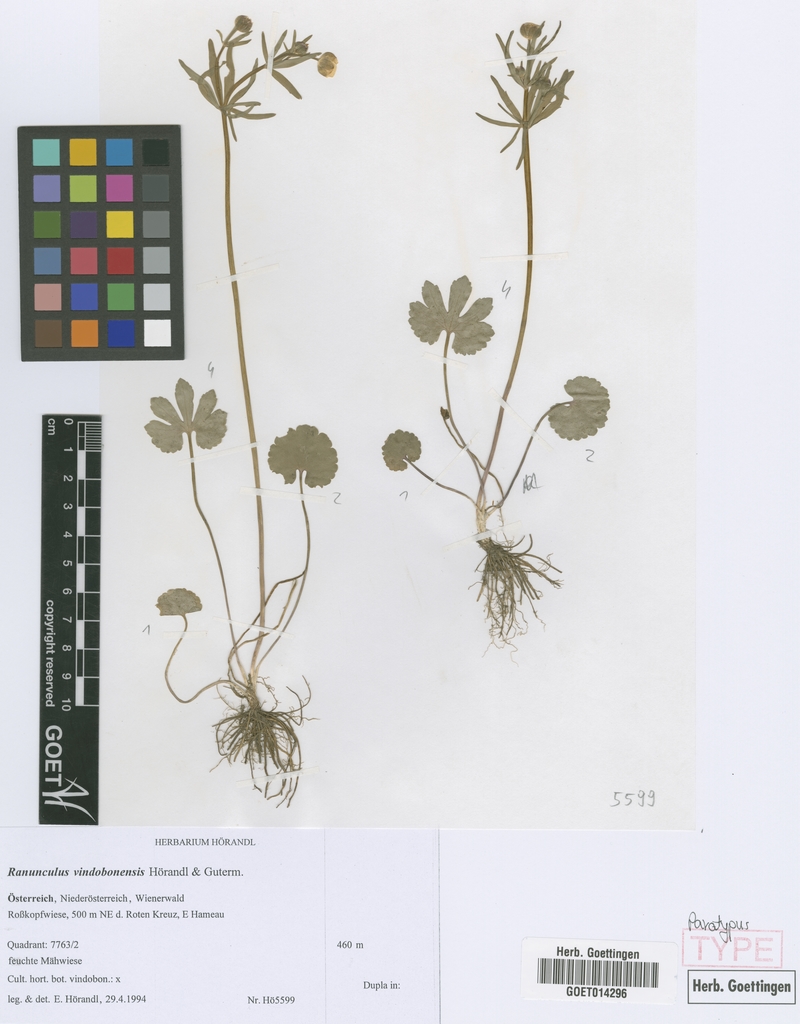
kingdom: Plantae
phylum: Tracheophyta
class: Magnoliopsida
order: Ranunculales
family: Ranunculaceae
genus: Ranunculus
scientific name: Ranunculus vindobonensis
